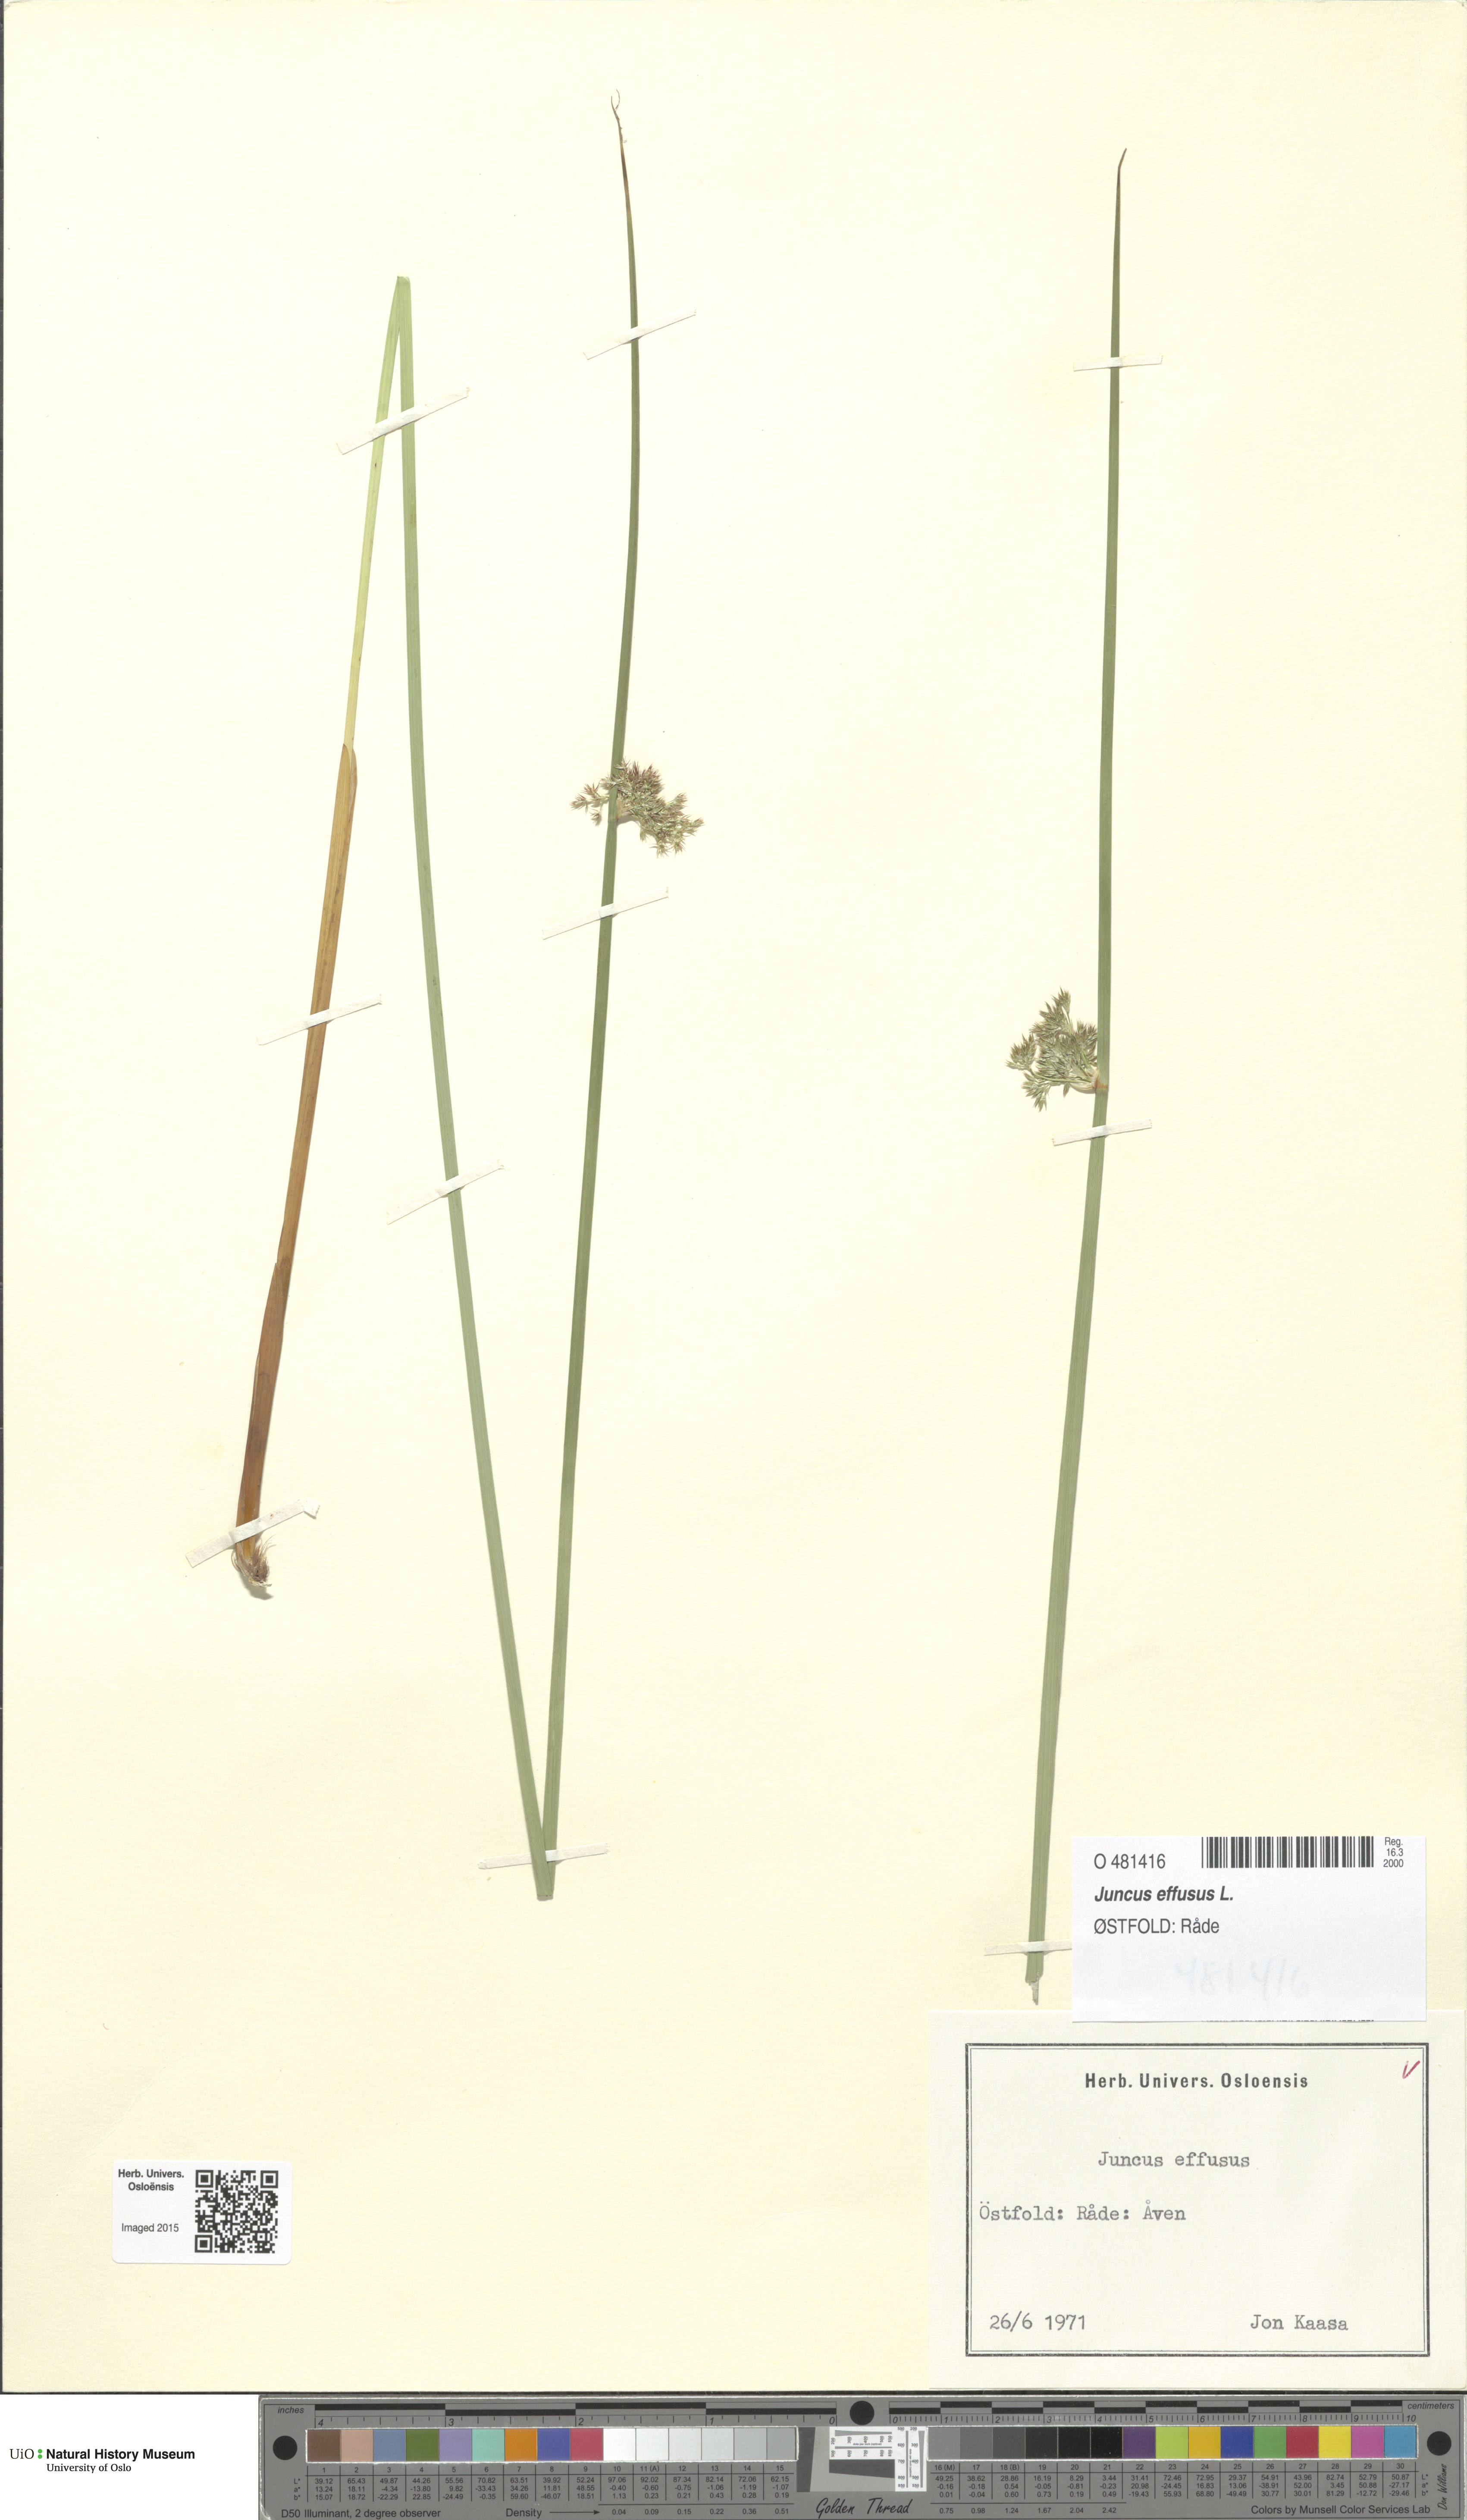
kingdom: Plantae
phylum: Tracheophyta
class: Liliopsida
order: Poales
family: Juncaceae
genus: Juncus
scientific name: Juncus effusus
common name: Soft rush
